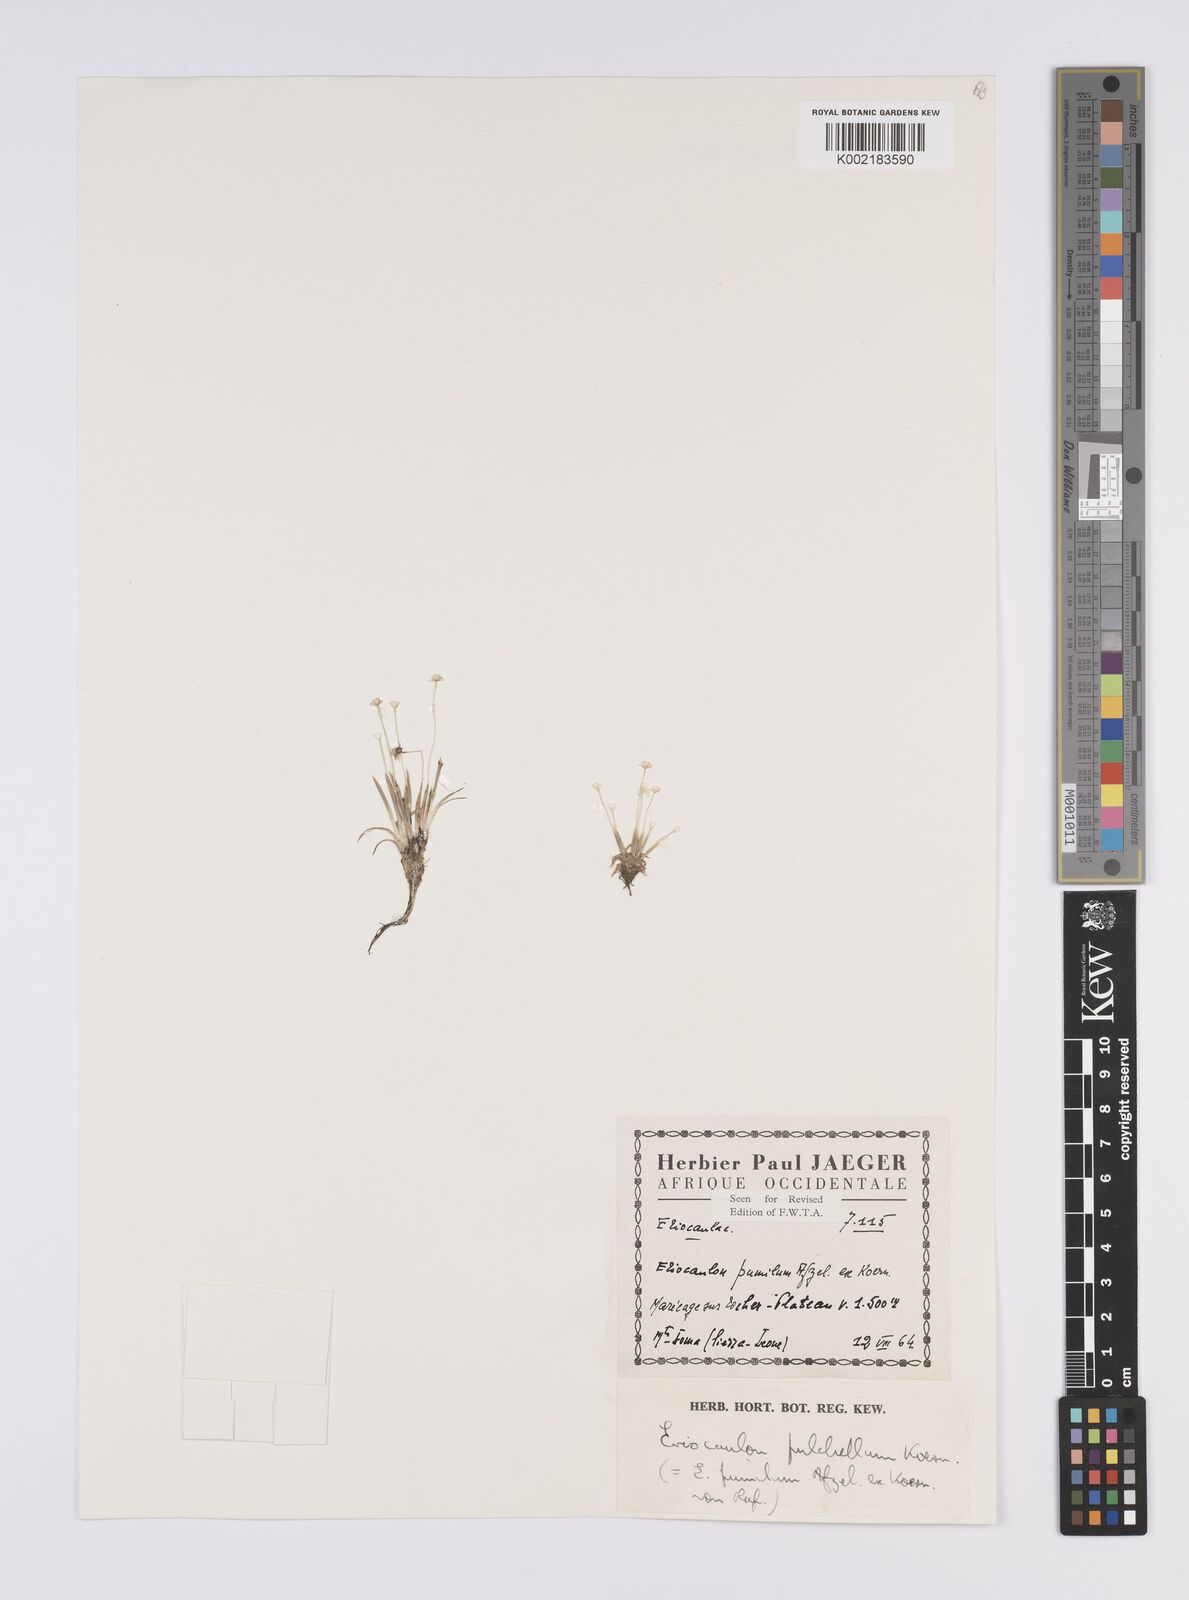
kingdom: Plantae
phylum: Tracheophyta
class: Liliopsida
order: Poales
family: Eriocaulaceae
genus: Eriocaulon
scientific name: Eriocaulon pulchellum
